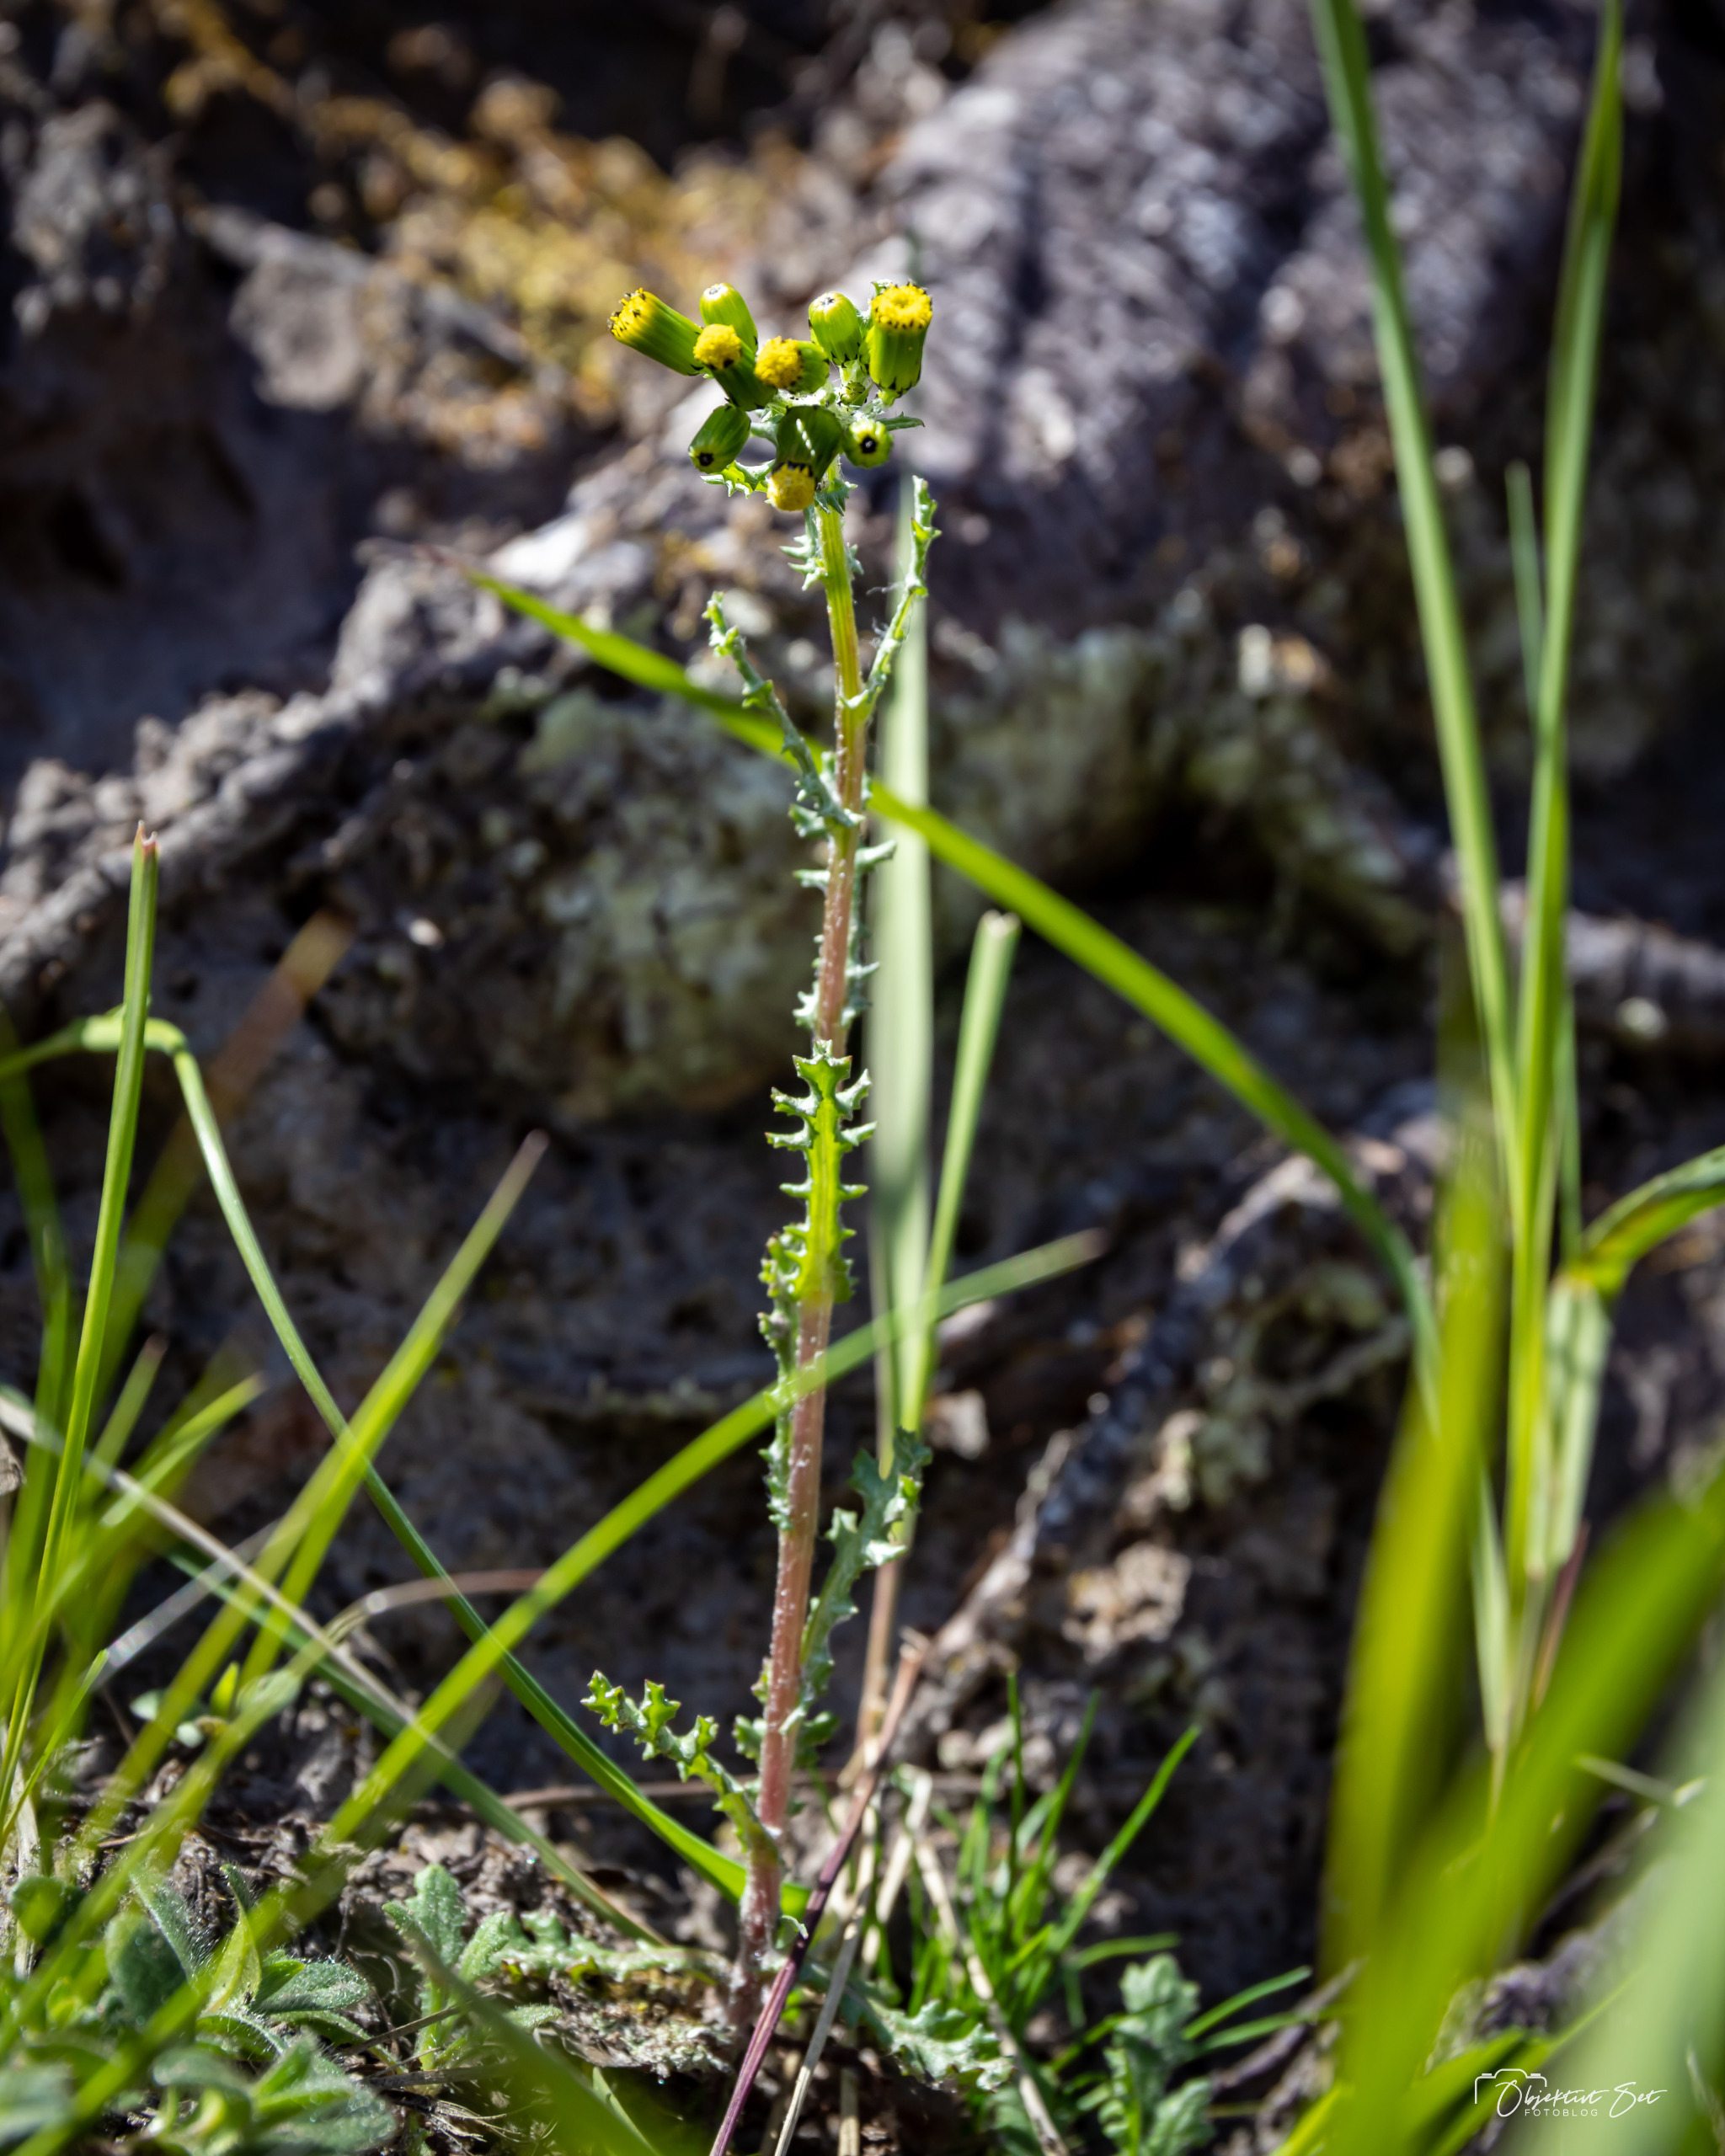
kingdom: Plantae
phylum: Tracheophyta
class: Magnoliopsida
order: Asterales
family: Asteraceae
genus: Senecio
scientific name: Senecio vulgaris
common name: Almindelig brandbæger
